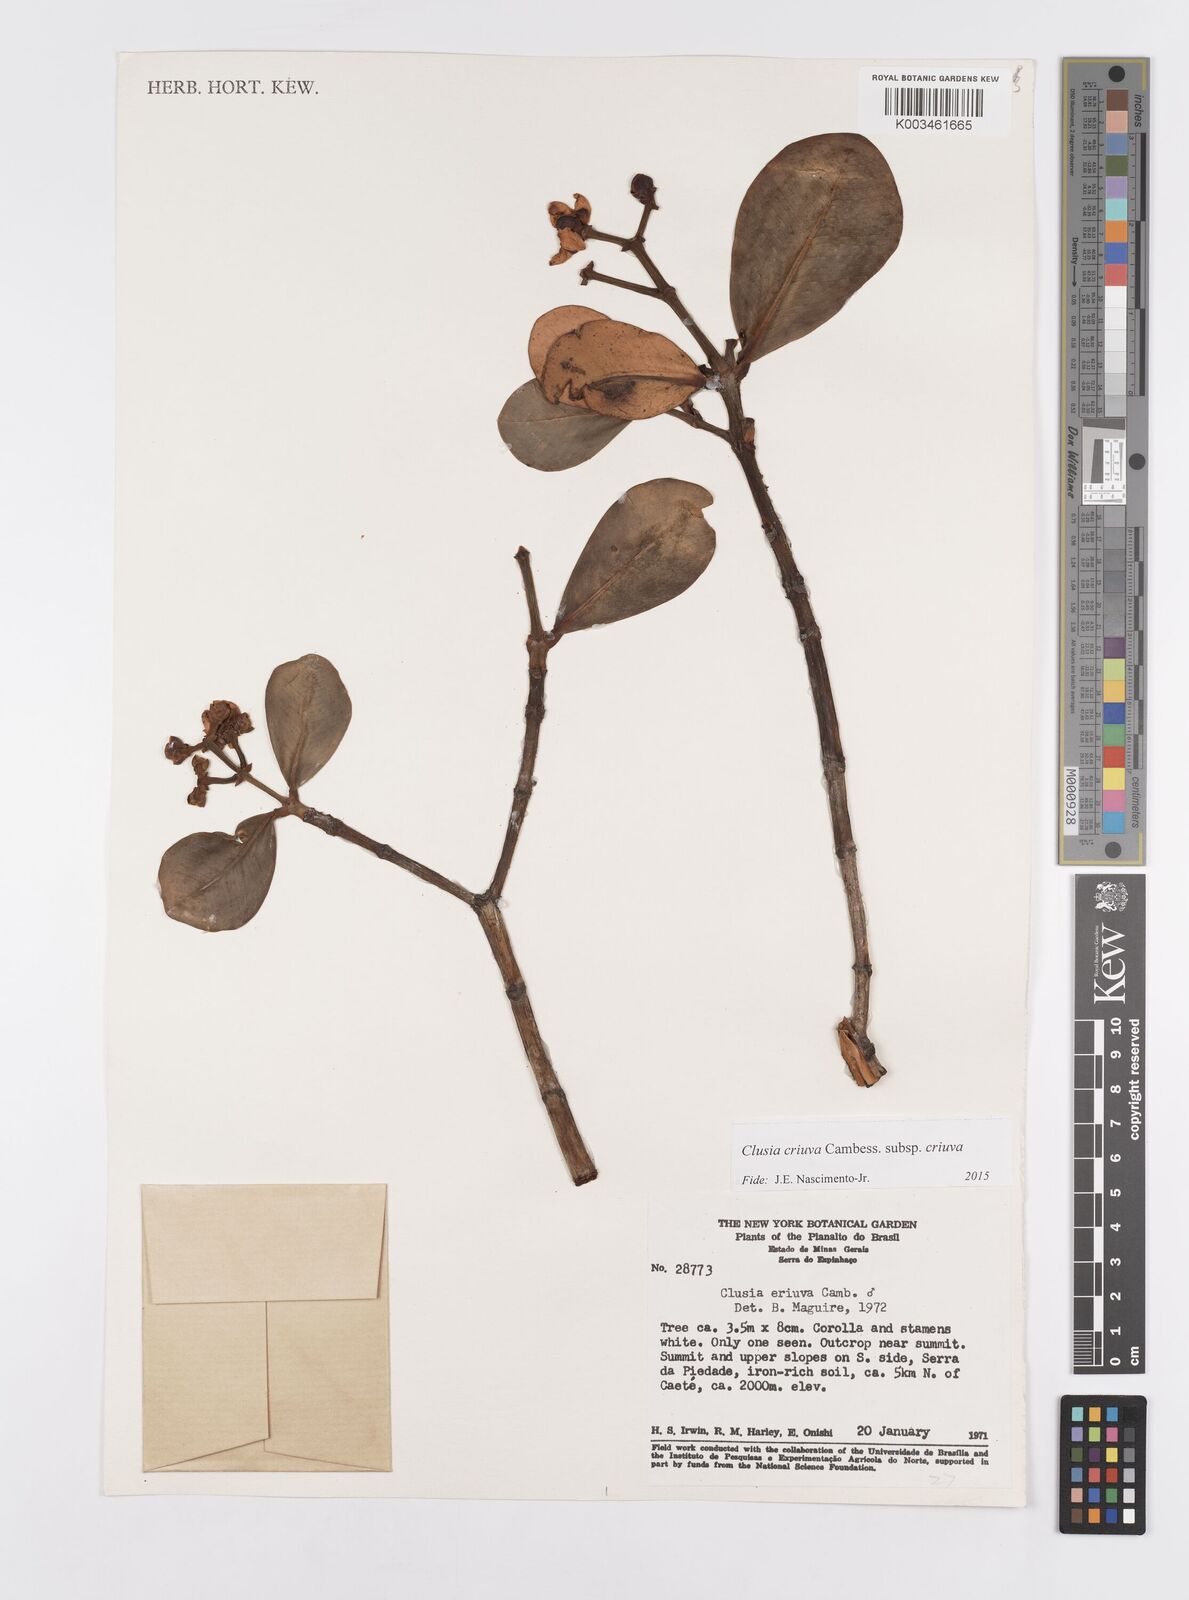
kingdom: Plantae
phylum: Tracheophyta
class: Magnoliopsida
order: Malpighiales
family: Clusiaceae
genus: Clusia
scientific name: Clusia criuva
